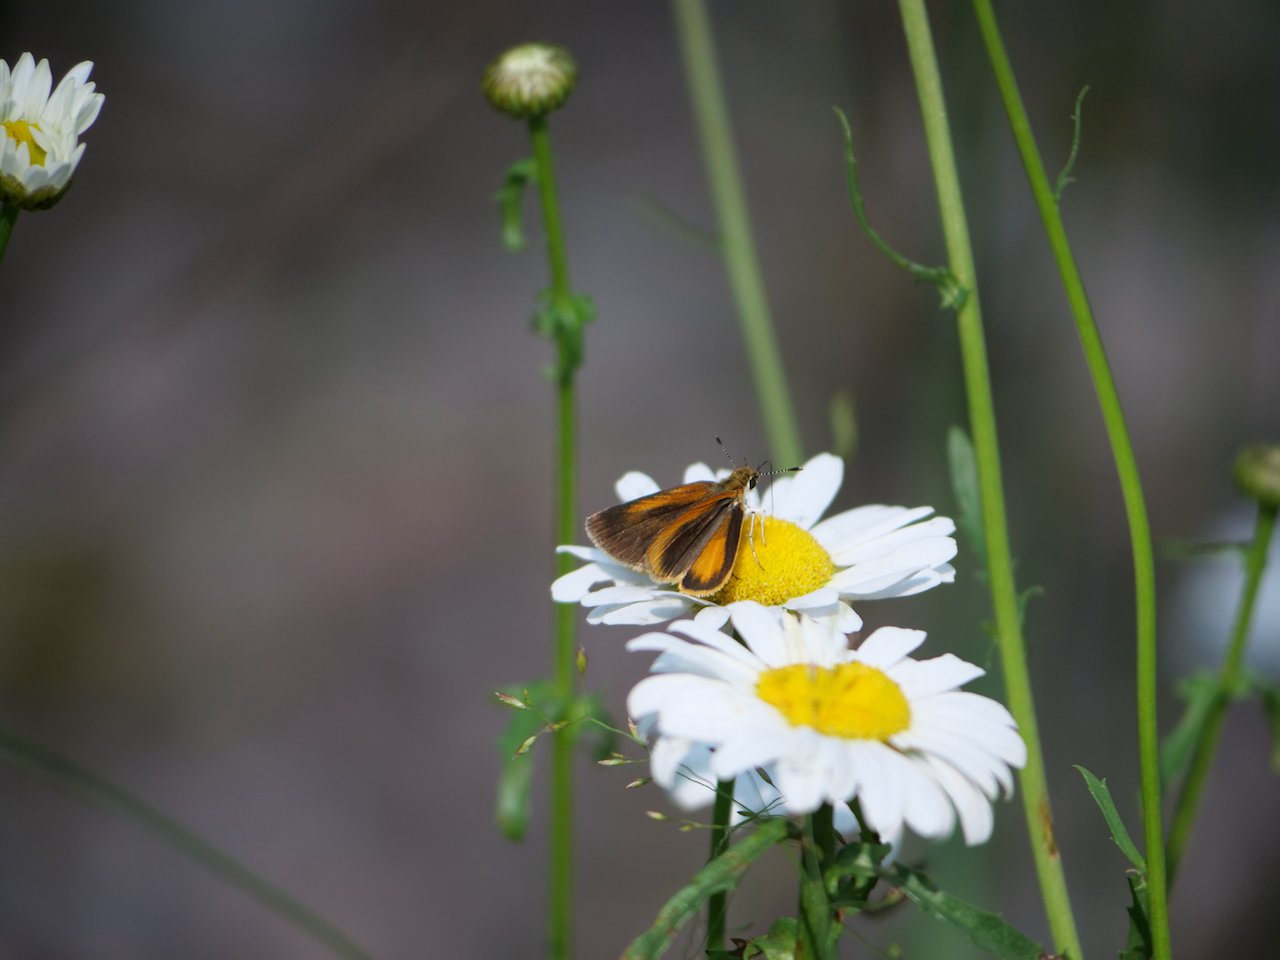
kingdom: Animalia
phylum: Arthropoda
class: Insecta
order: Lepidoptera
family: Hesperiidae
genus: Ancyloxypha
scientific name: Ancyloxypha numitor
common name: Least Skipper
